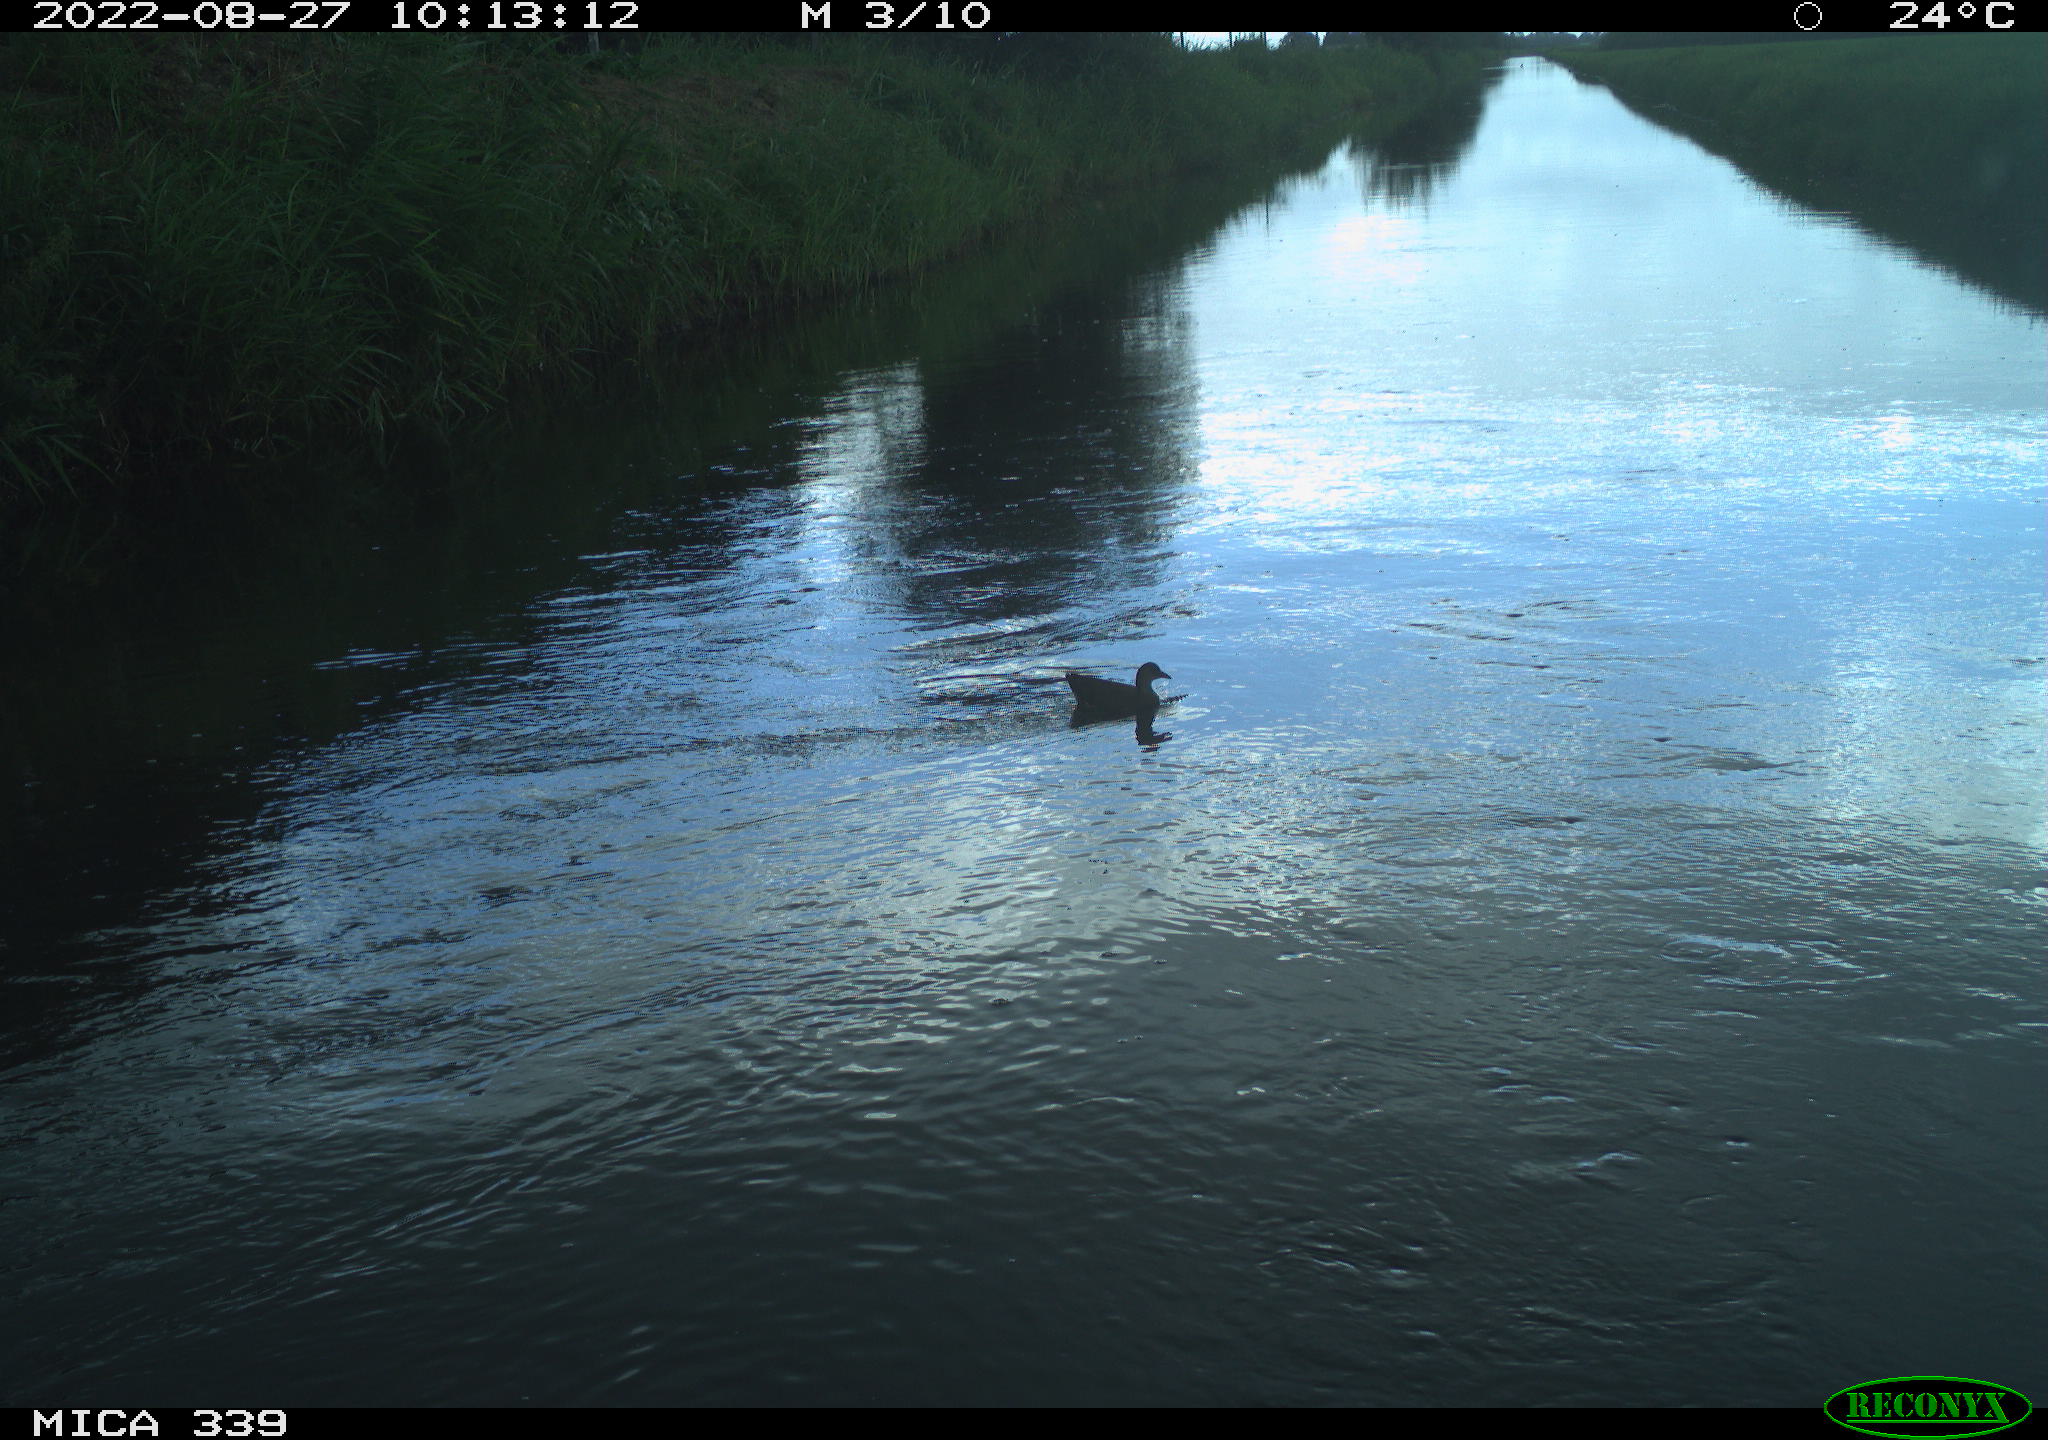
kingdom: Animalia
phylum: Chordata
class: Aves
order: Gruiformes
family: Rallidae
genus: Gallinula
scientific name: Gallinula chloropus
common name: Common moorhen
